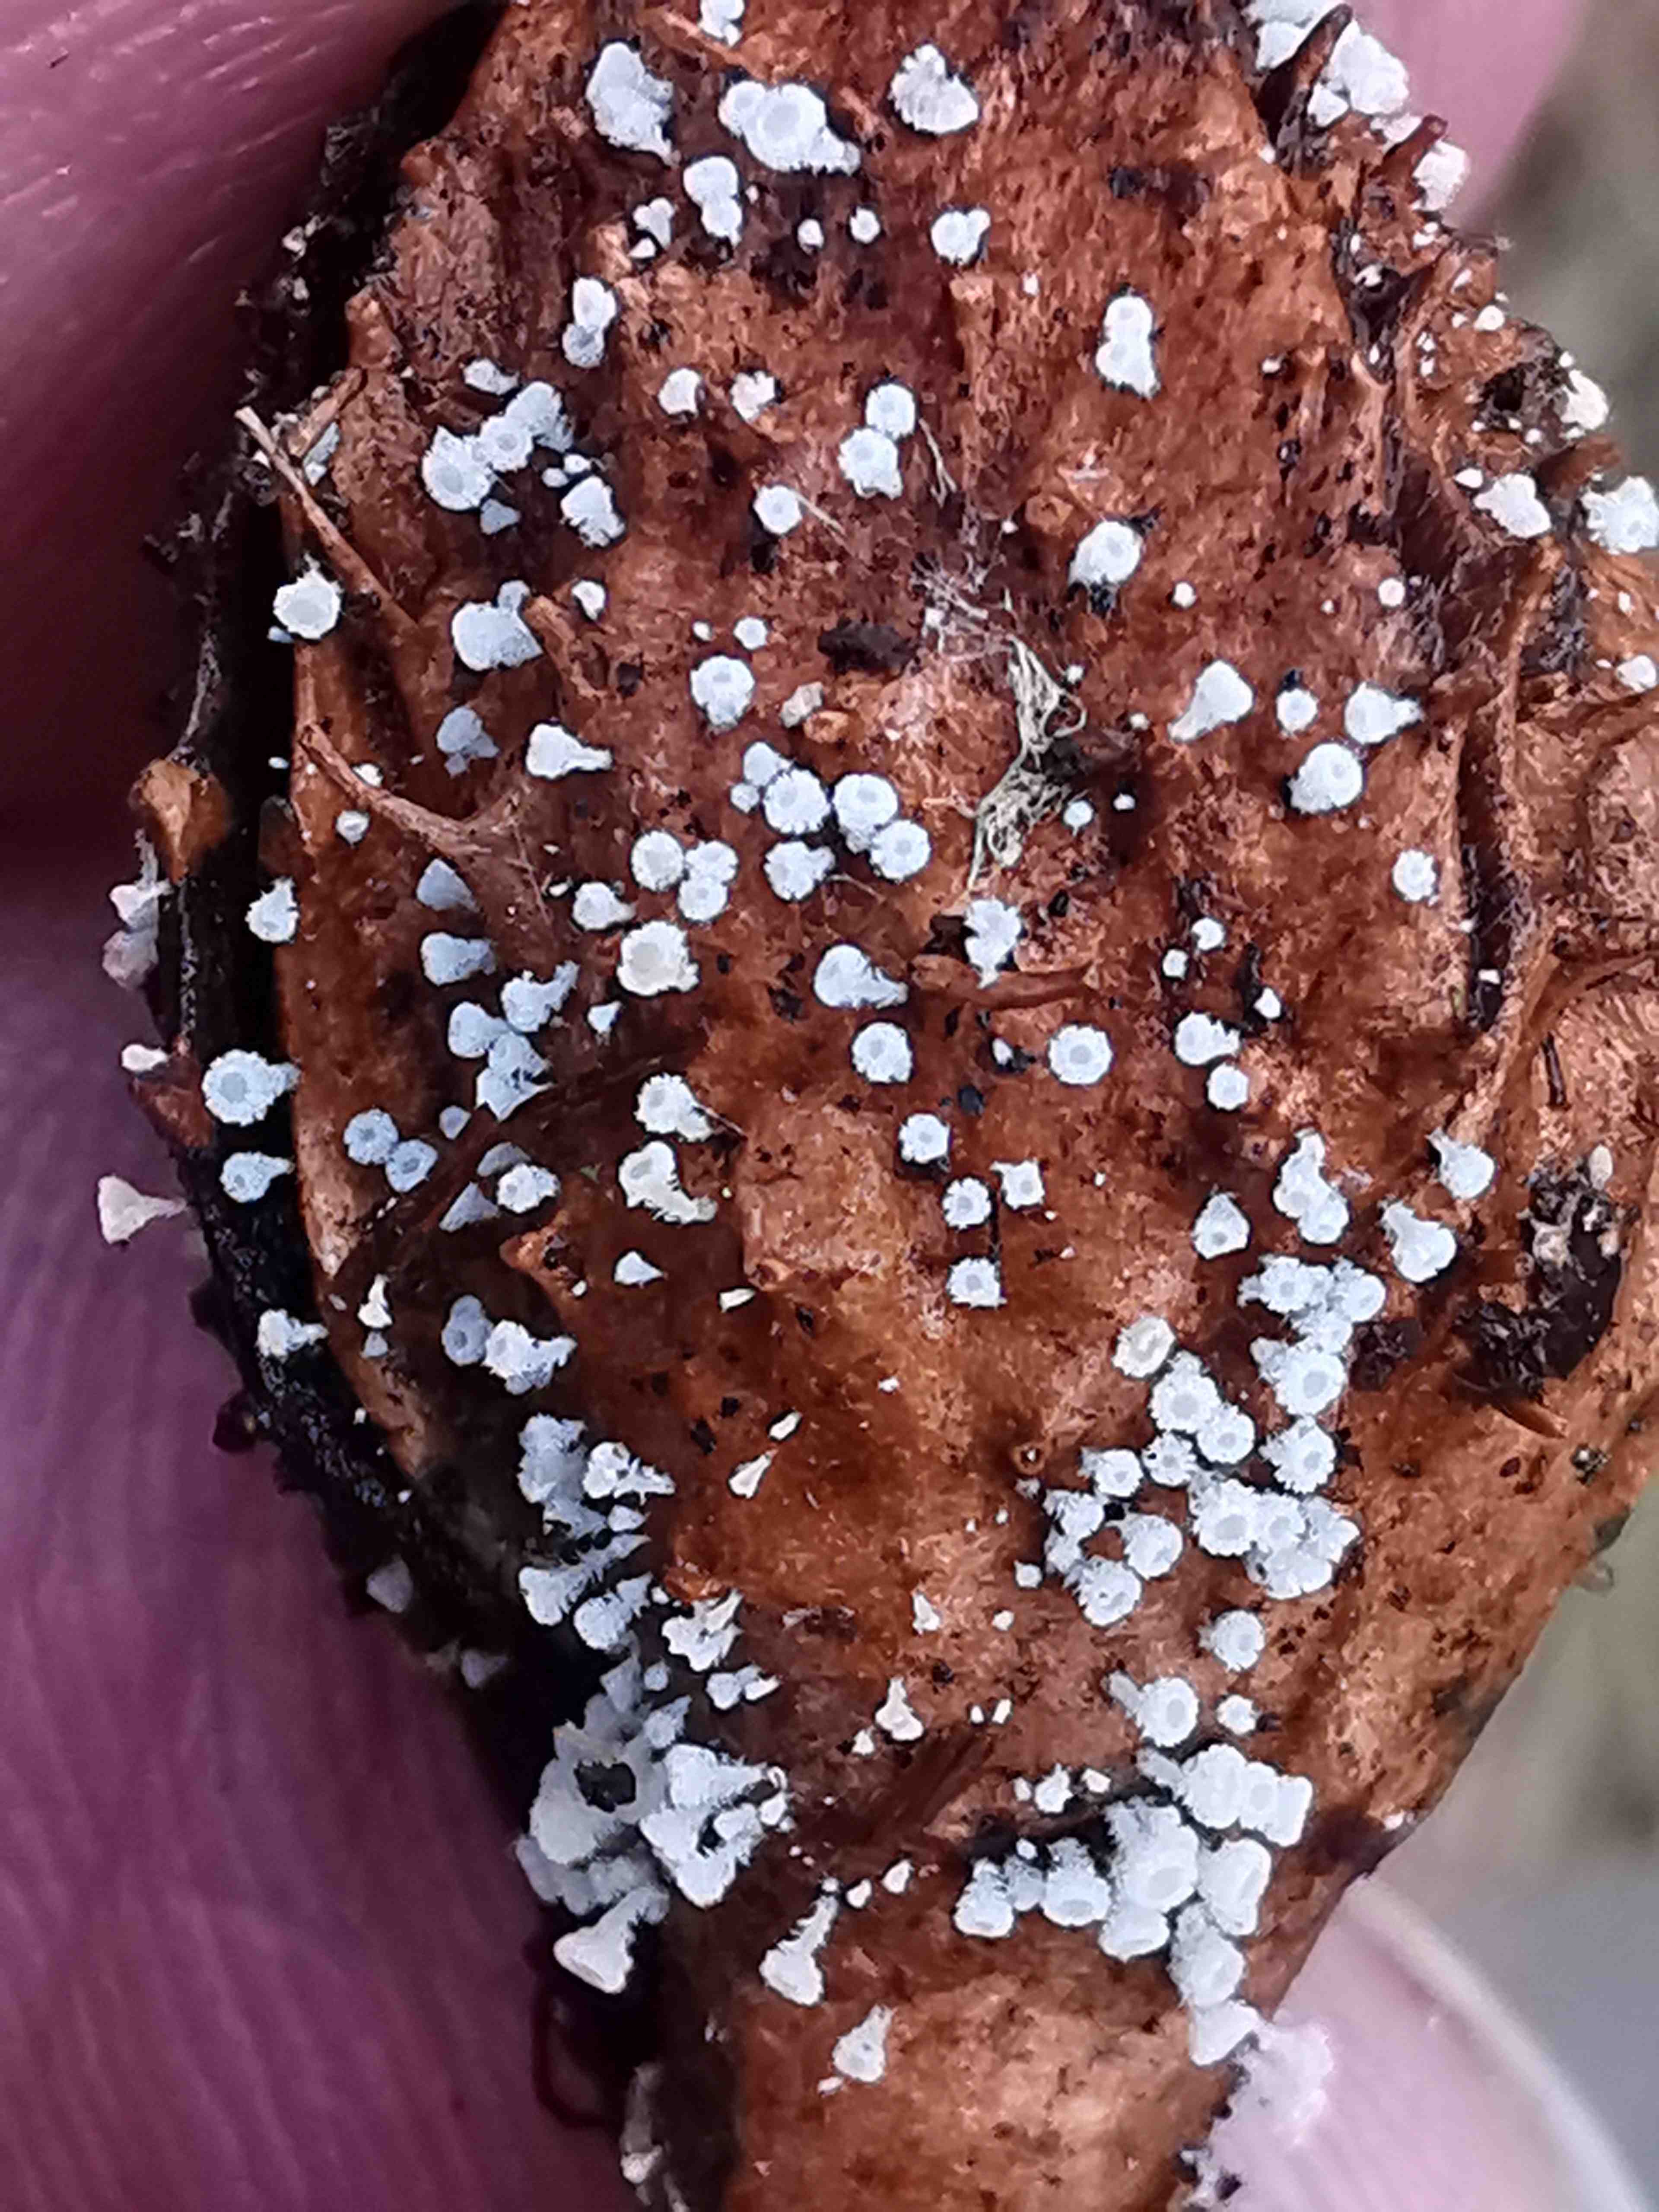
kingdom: Fungi
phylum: Ascomycota
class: Leotiomycetes
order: Helotiales
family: Lachnaceae
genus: Lachnum
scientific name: Lachnum virgineum
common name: jomfru-frynseskive
